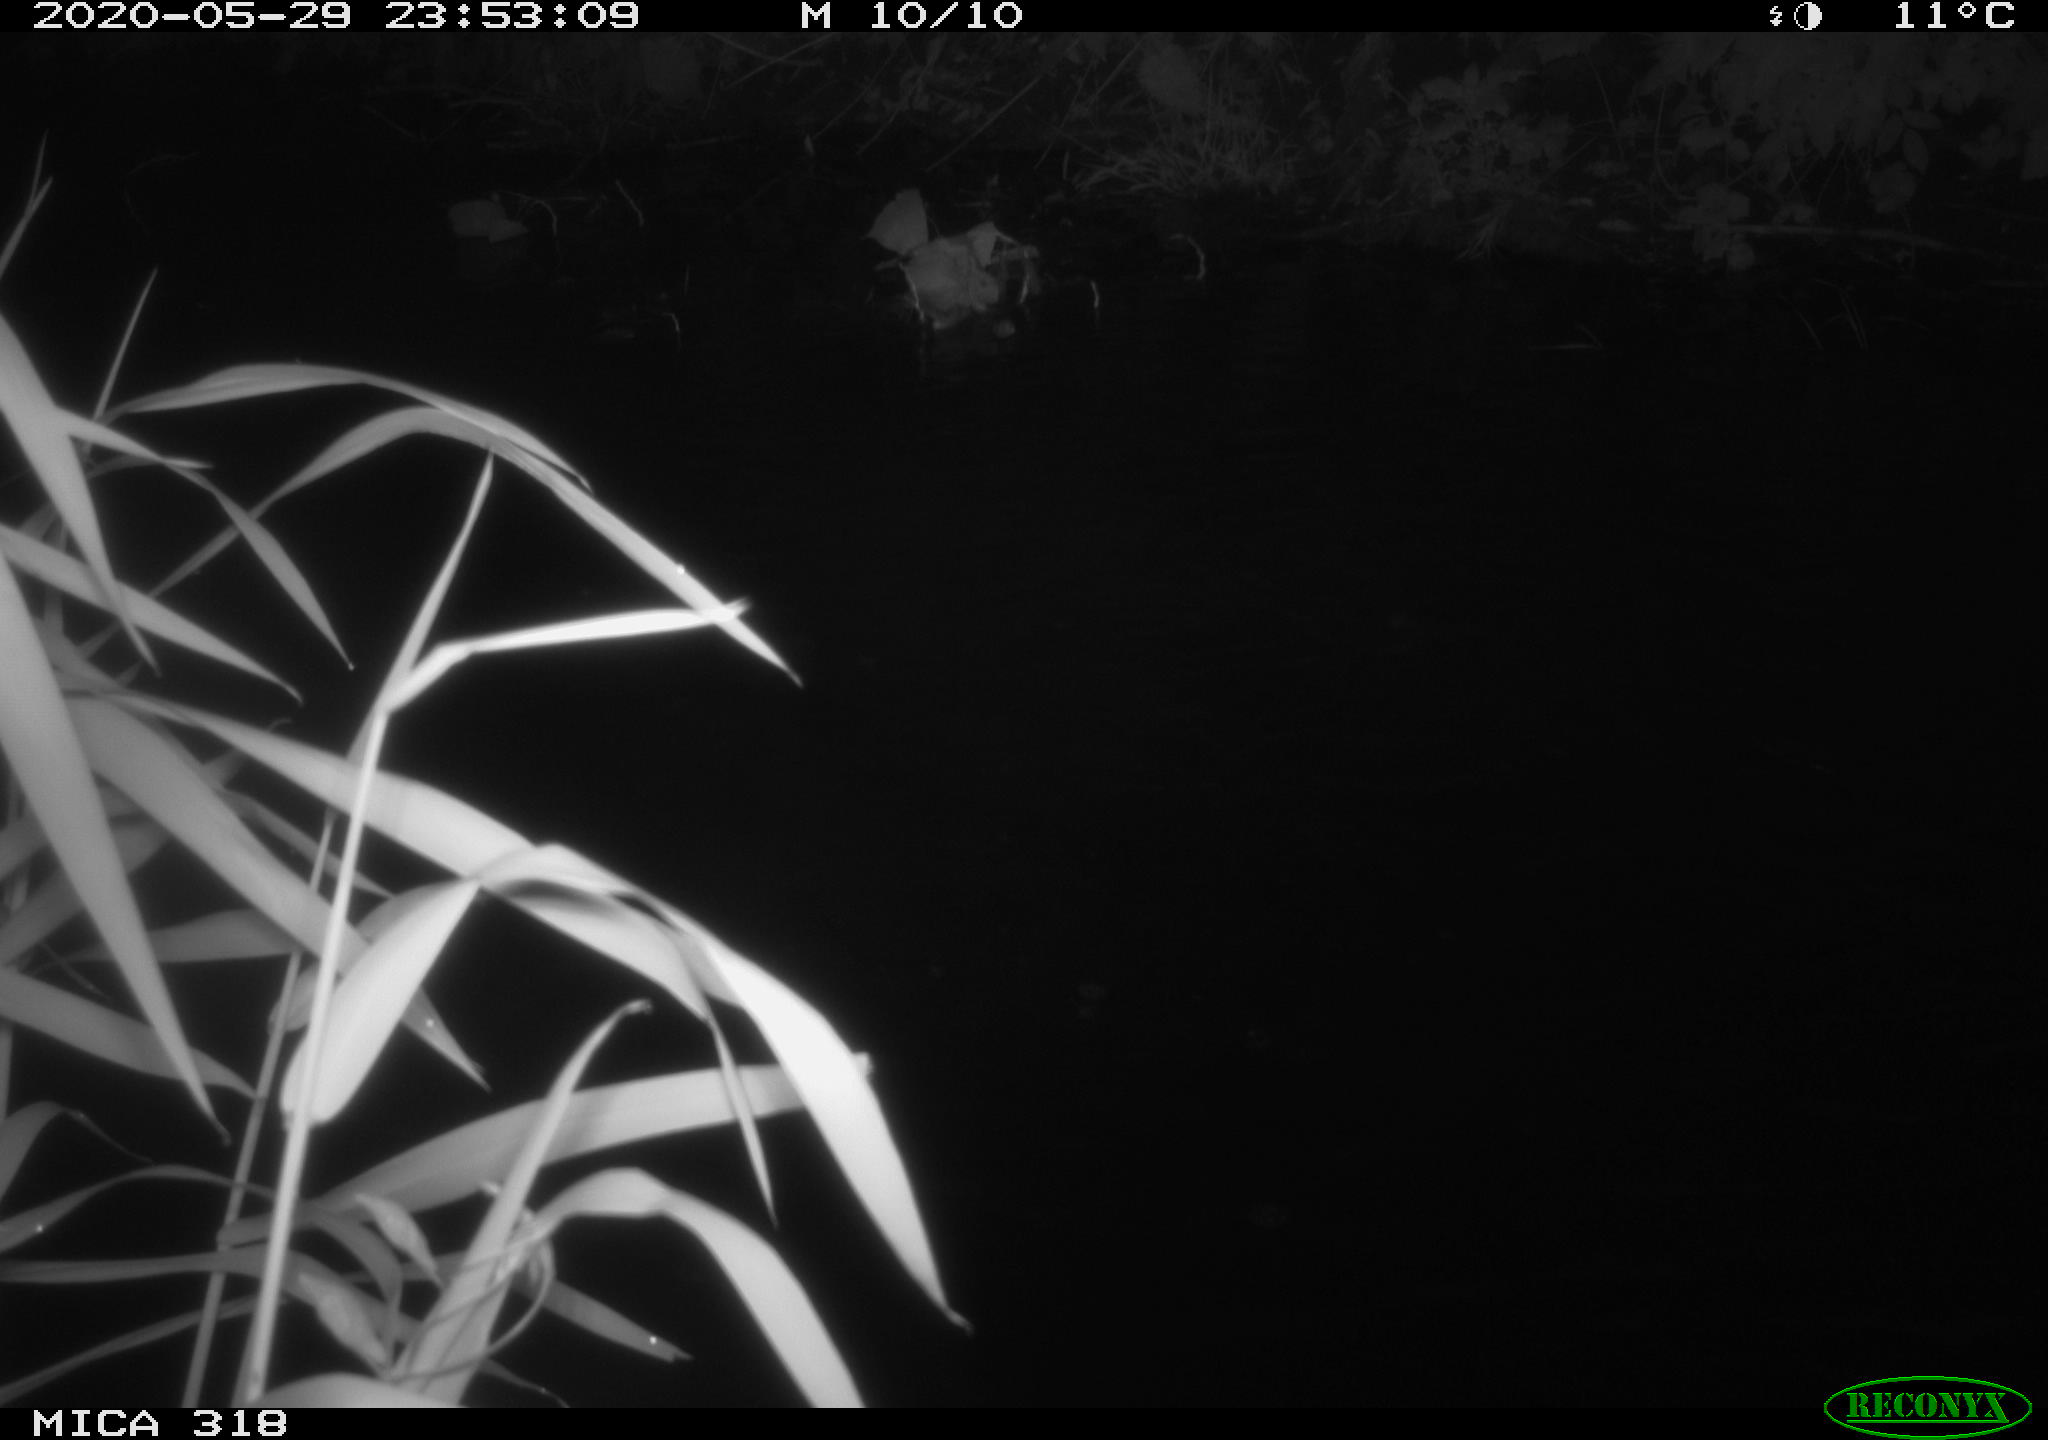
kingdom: Animalia
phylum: Chordata
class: Aves
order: Pelecaniformes
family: Ardeidae
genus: Ardea
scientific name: Ardea cinerea
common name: Grey heron
